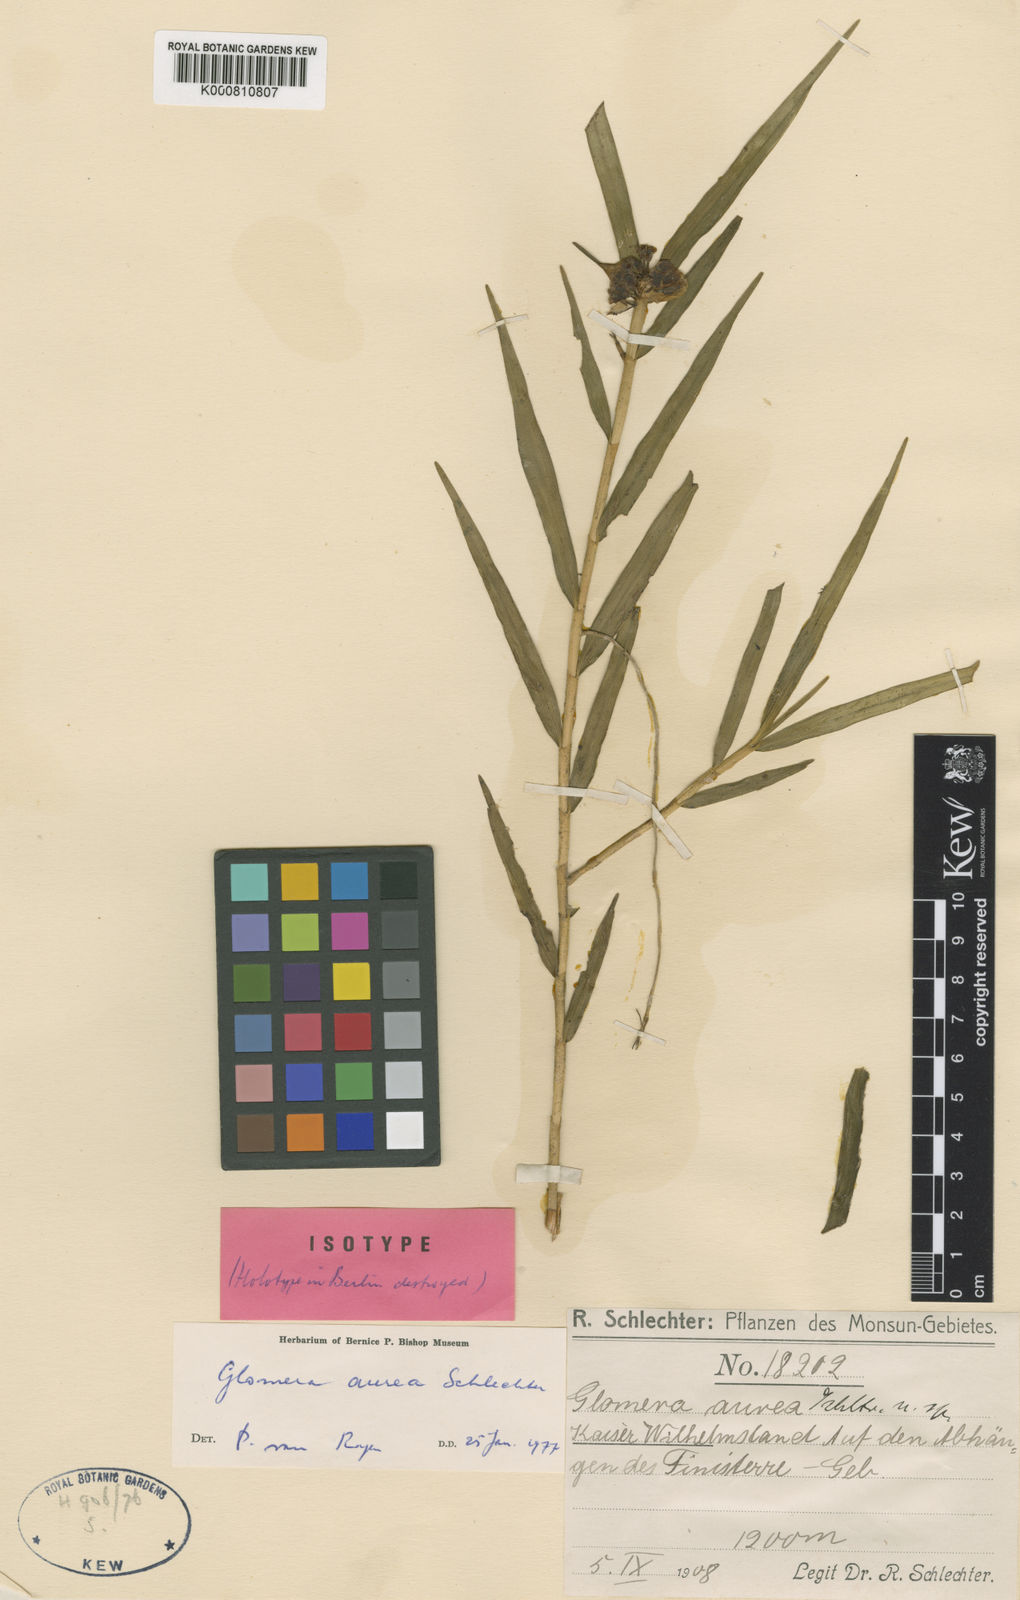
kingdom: Plantae
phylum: Tracheophyta
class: Liliopsida
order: Asparagales
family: Orchidaceae
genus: Glomera
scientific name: Glomera aurea
